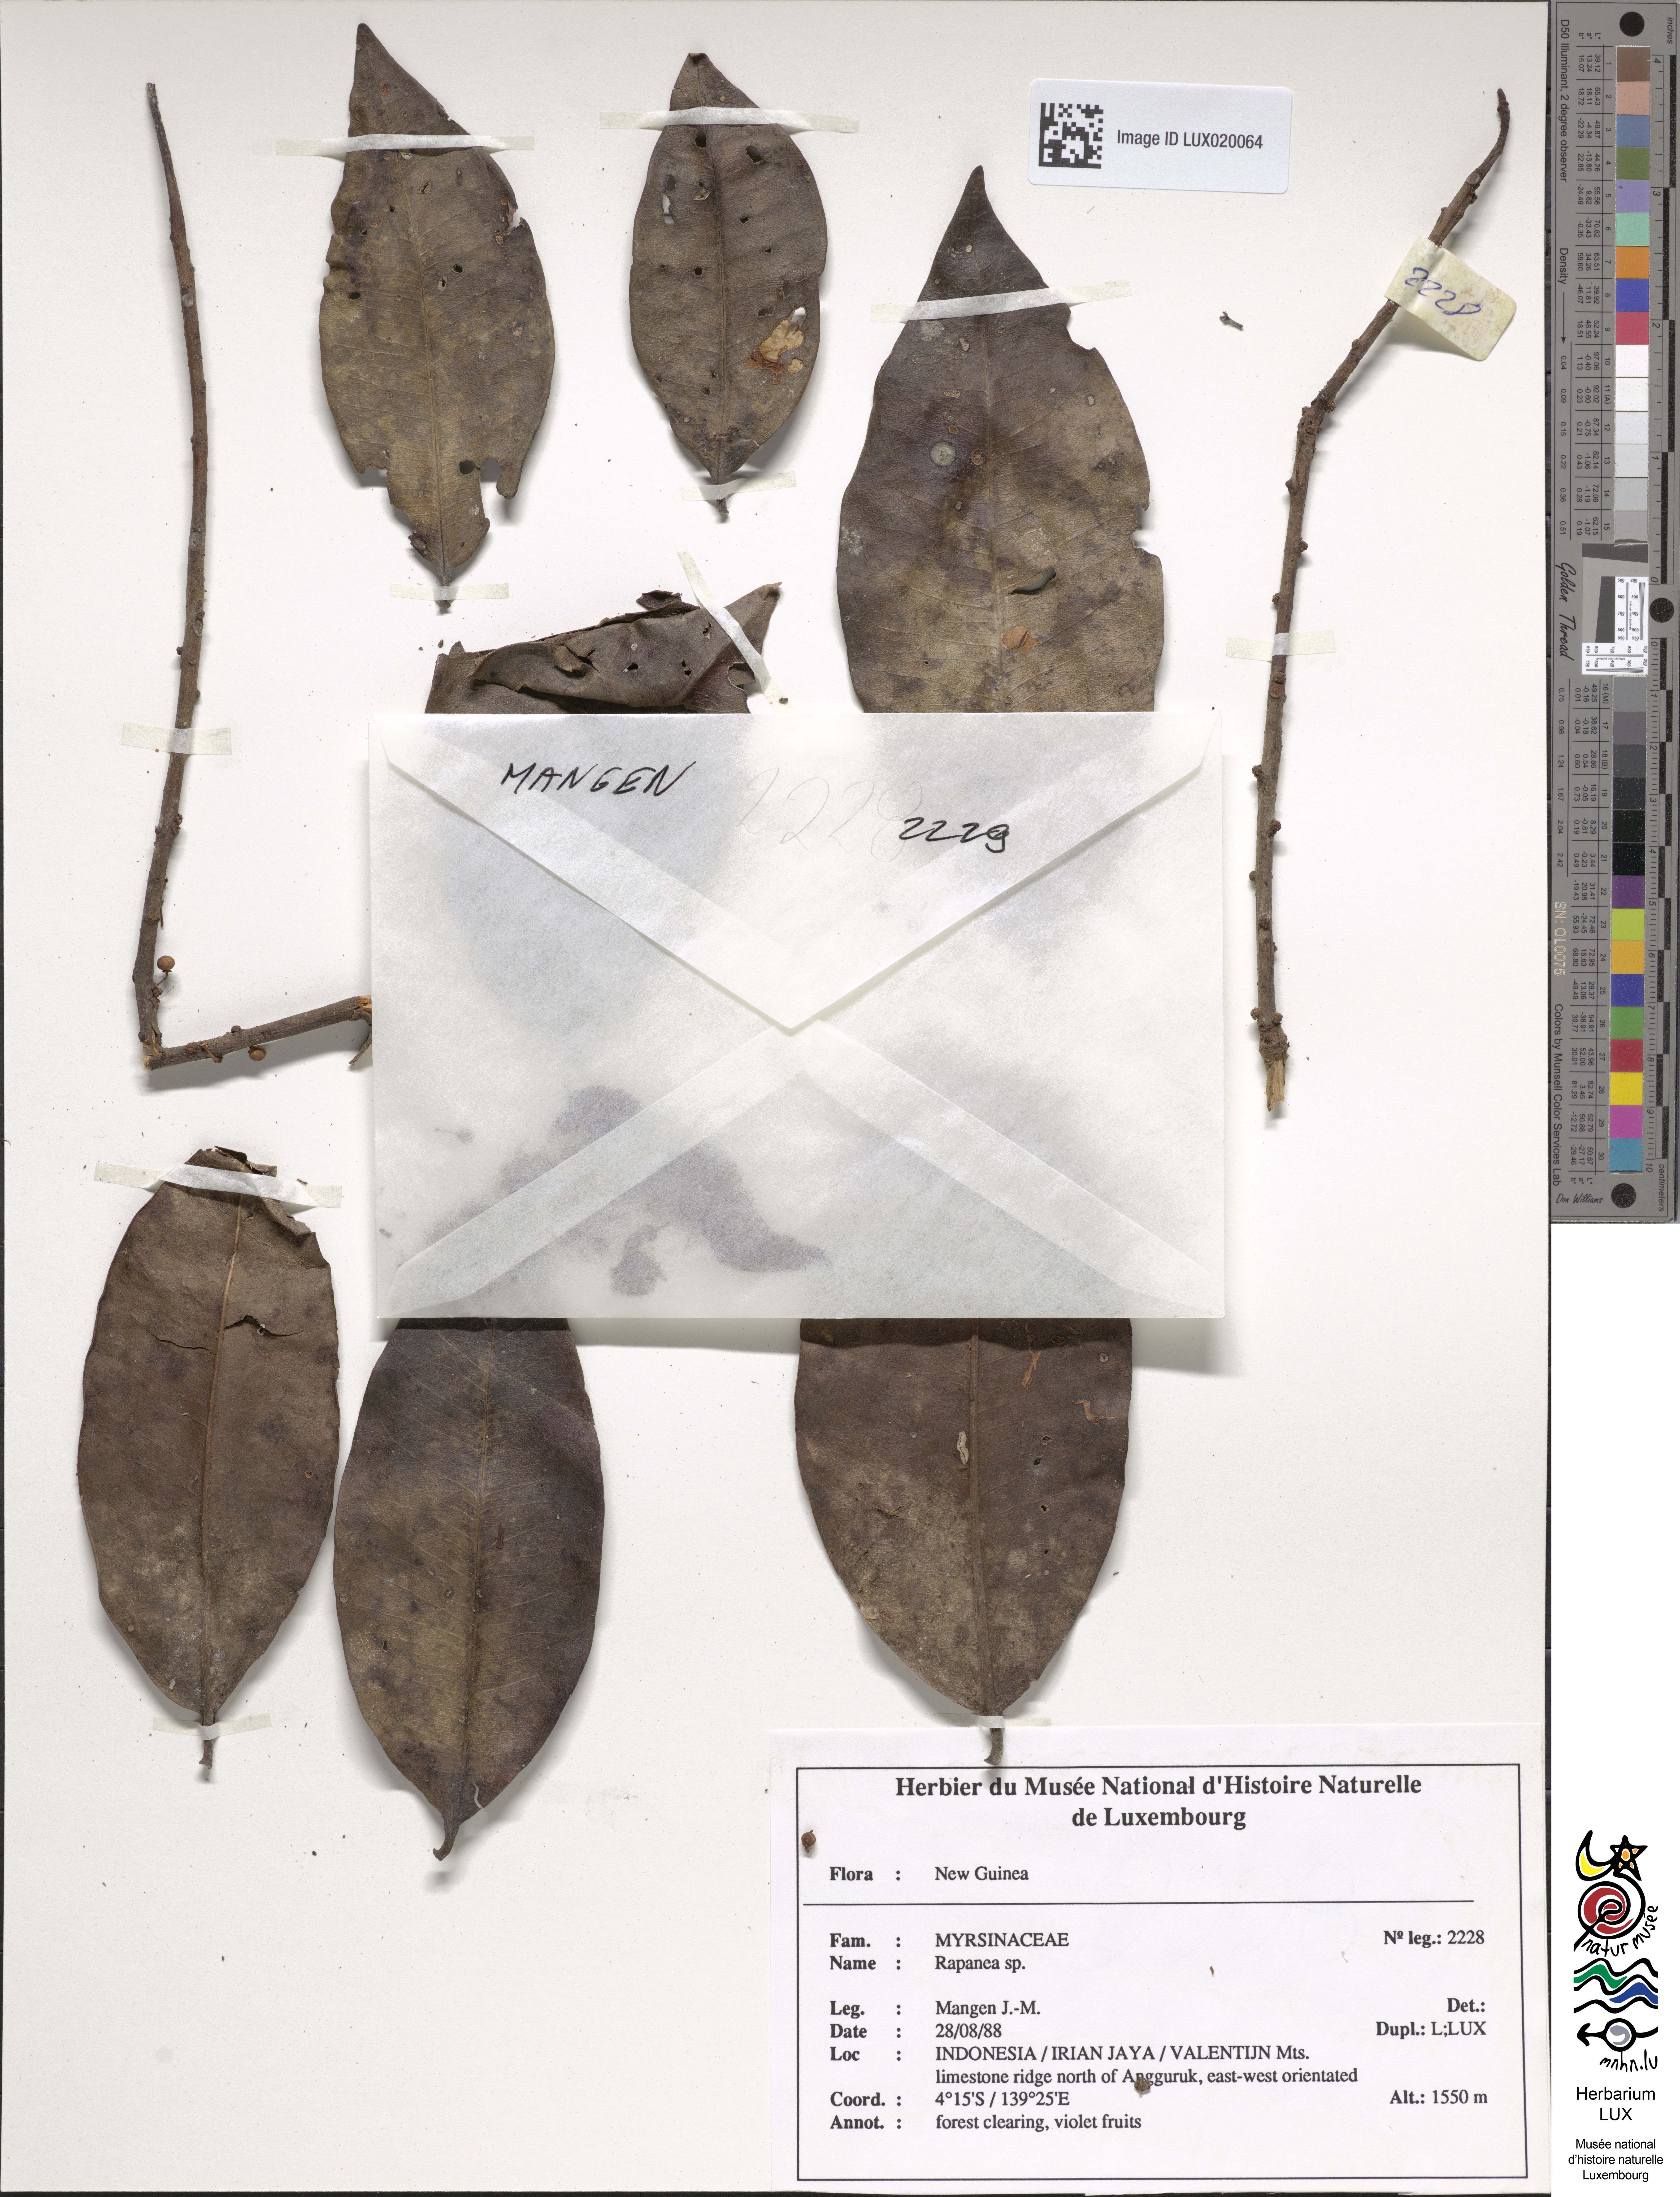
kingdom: Plantae
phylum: Tracheophyta
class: Magnoliopsida
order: Ericales
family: Primulaceae
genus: Myrsine
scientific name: Myrsine womersleyi
